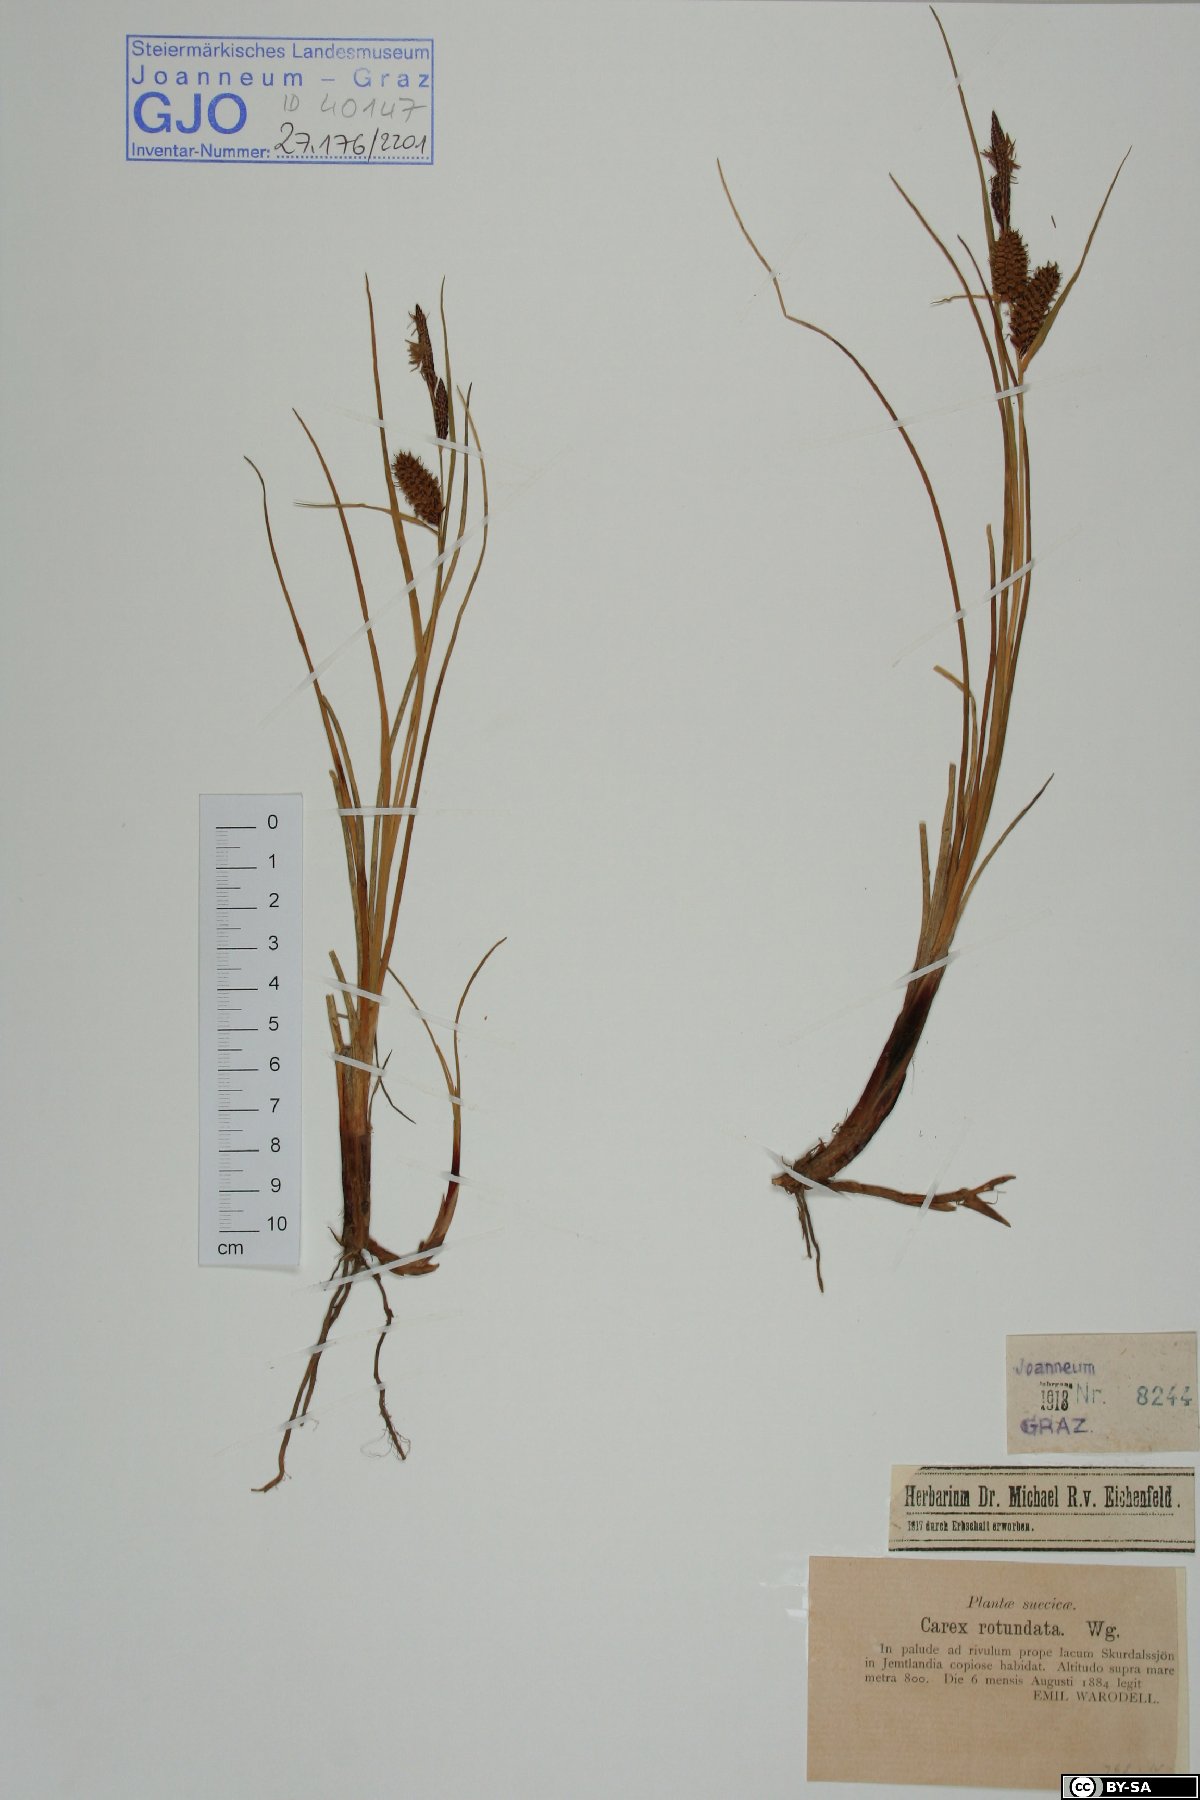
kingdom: Plantae
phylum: Tracheophyta
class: Liliopsida
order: Poales
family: Cyperaceae
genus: Carex
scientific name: Carex rotundata
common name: Round-fruited sedge
